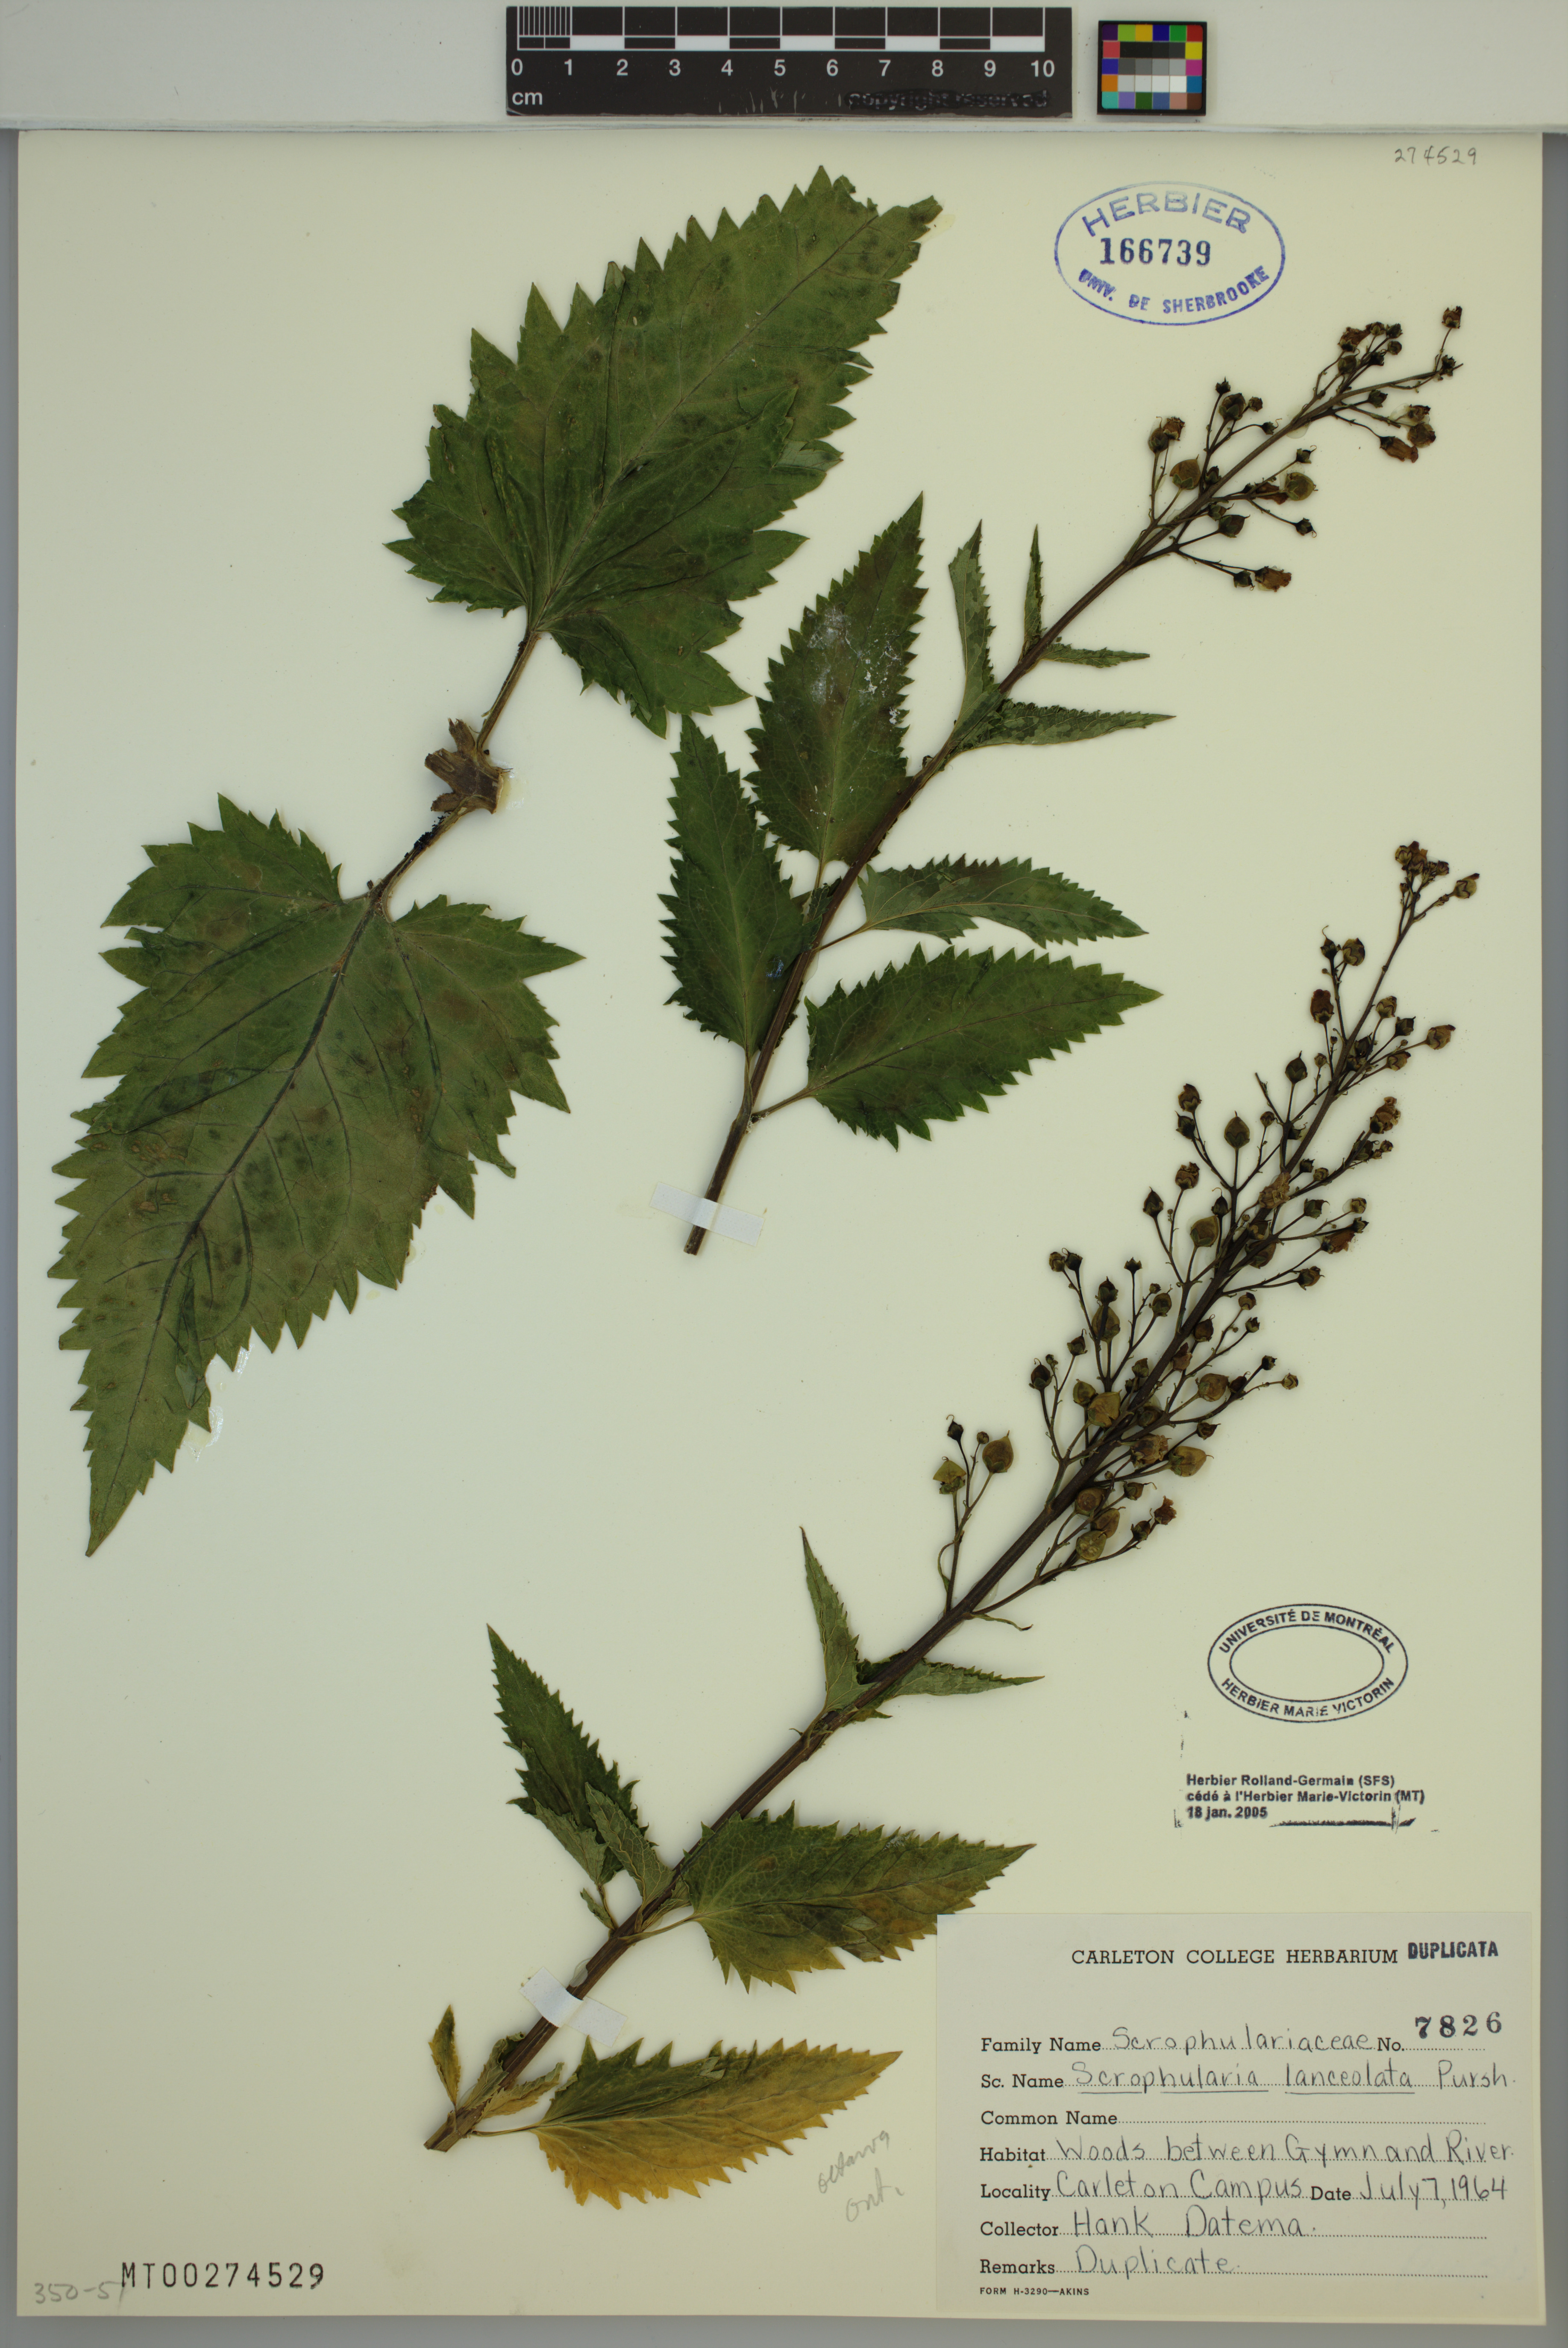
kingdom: Plantae
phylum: Tracheophyta
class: Magnoliopsida
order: Lamiales
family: Scrophulariaceae
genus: Scrophularia
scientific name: Scrophularia lanceolata
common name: American figwort
